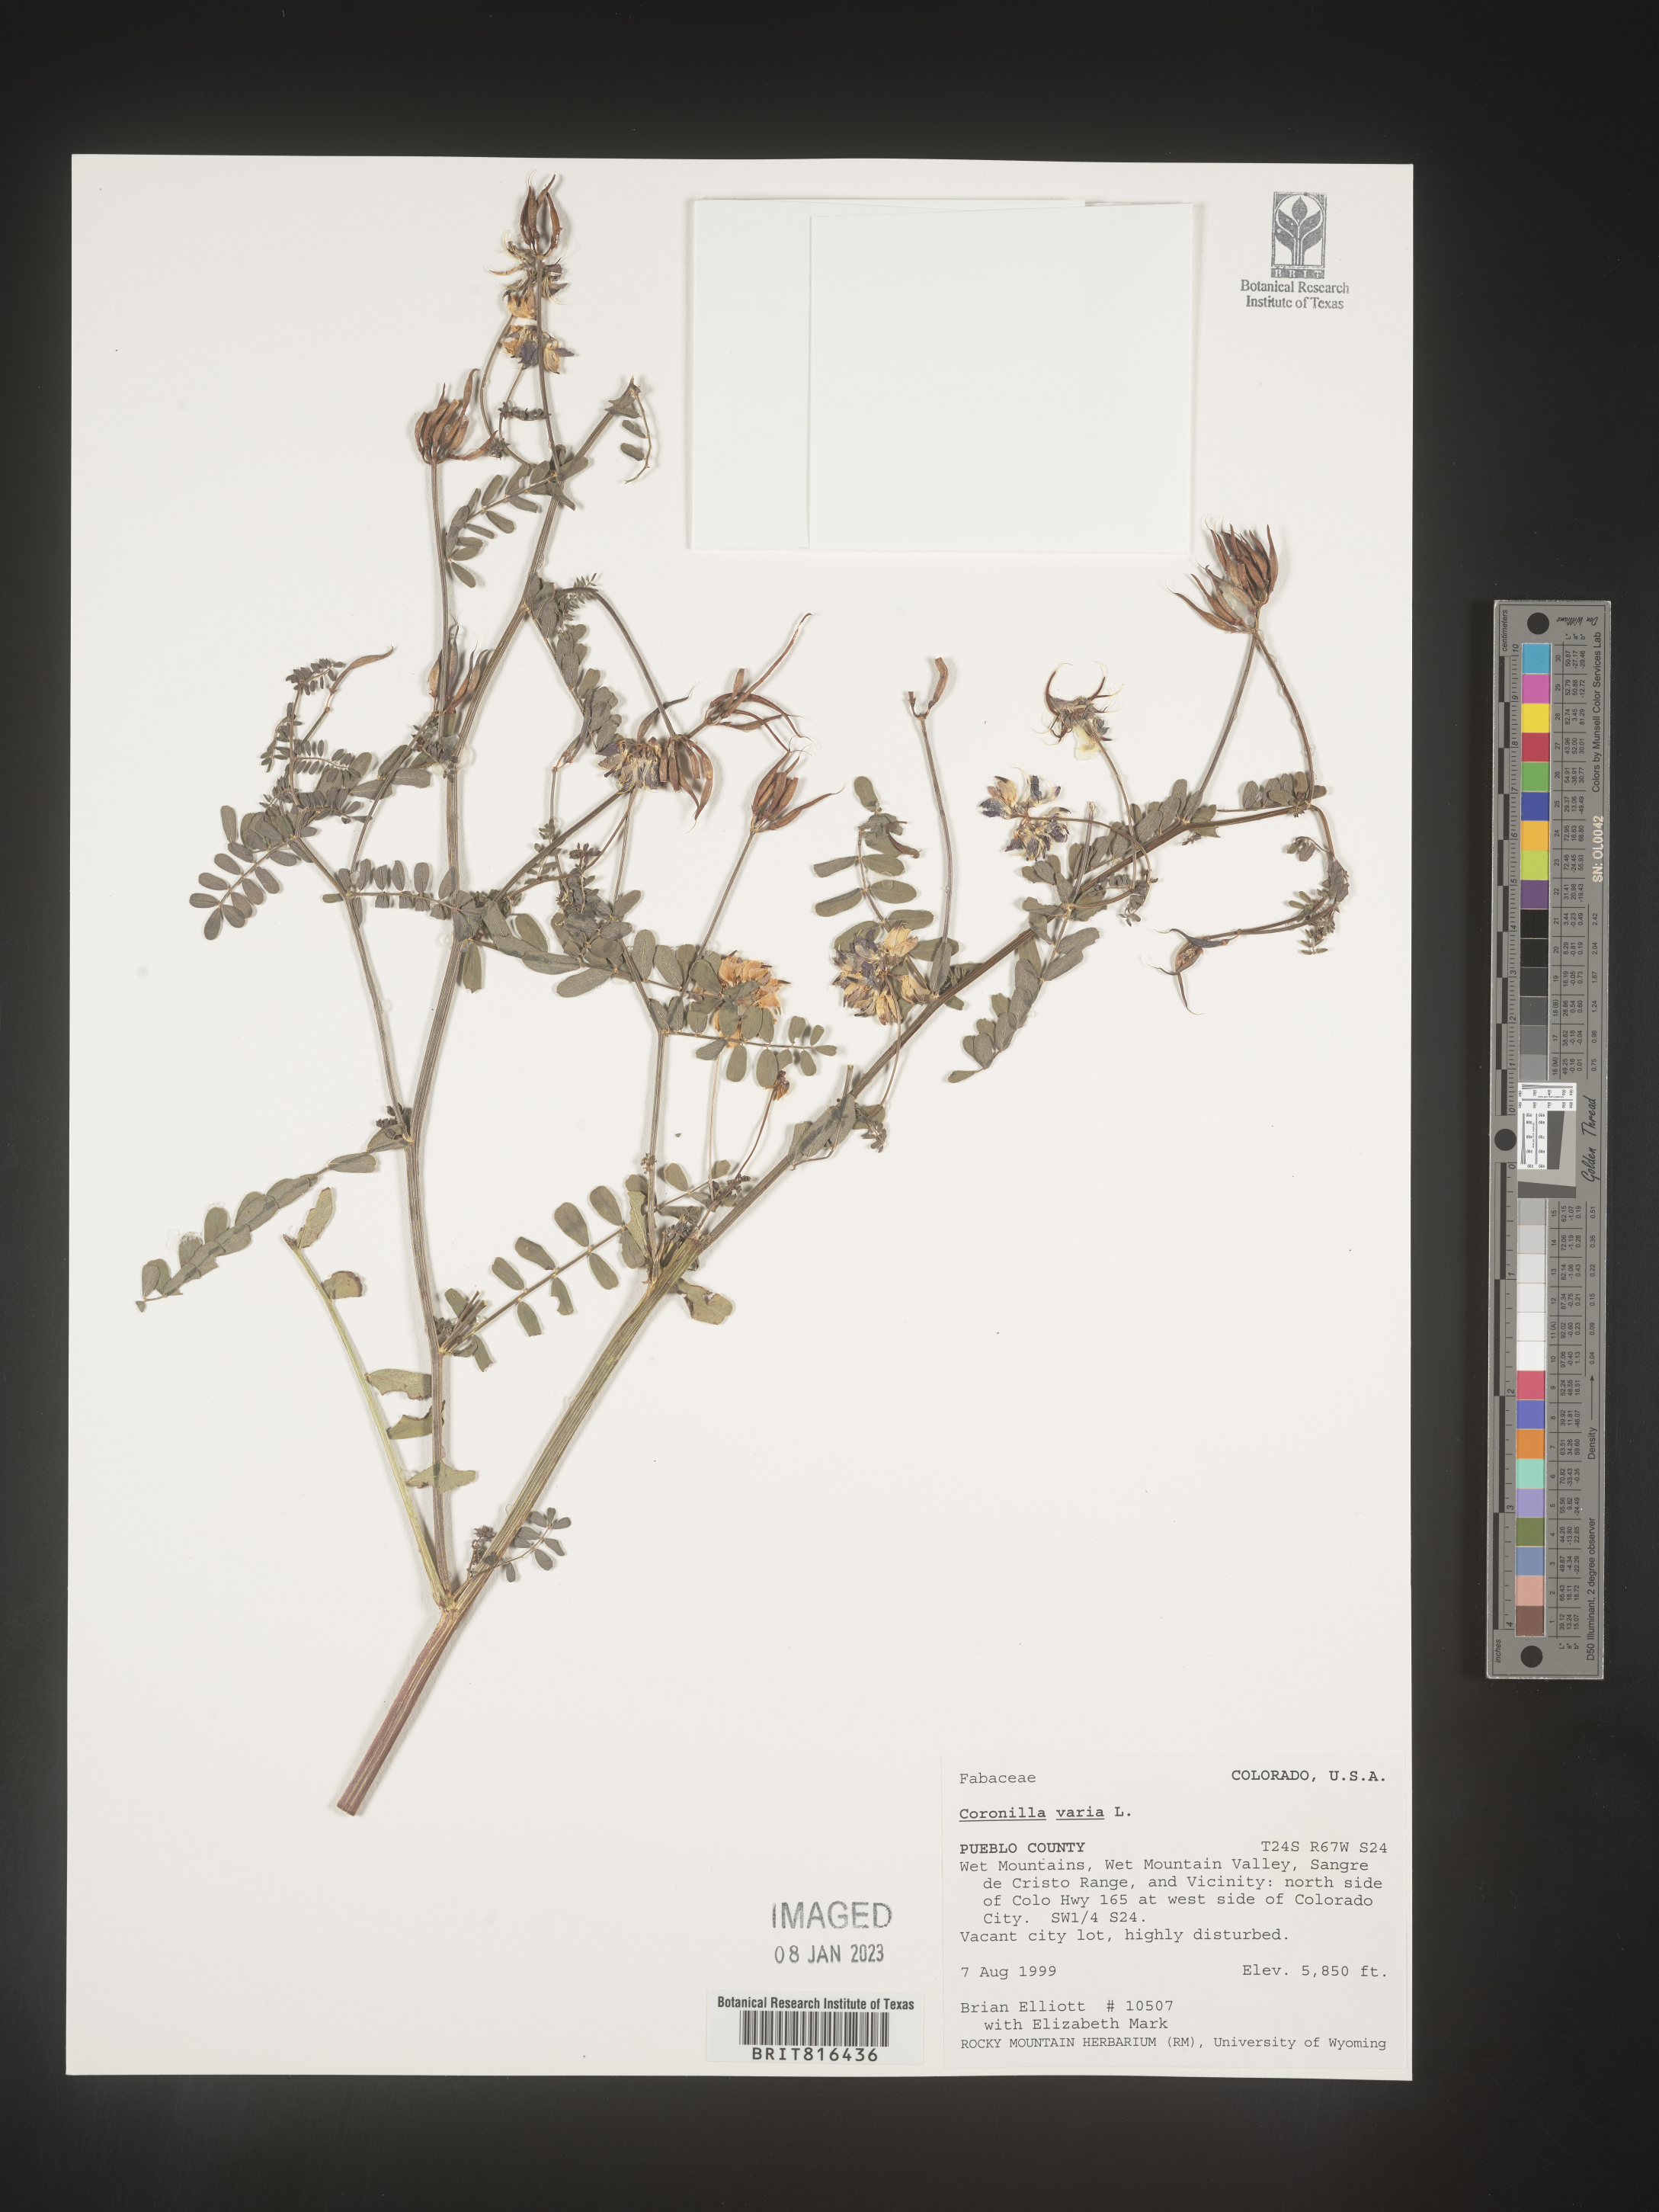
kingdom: Plantae
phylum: Tracheophyta
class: Magnoliopsida
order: Fabales
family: Fabaceae
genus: Coronilla
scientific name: Coronilla
